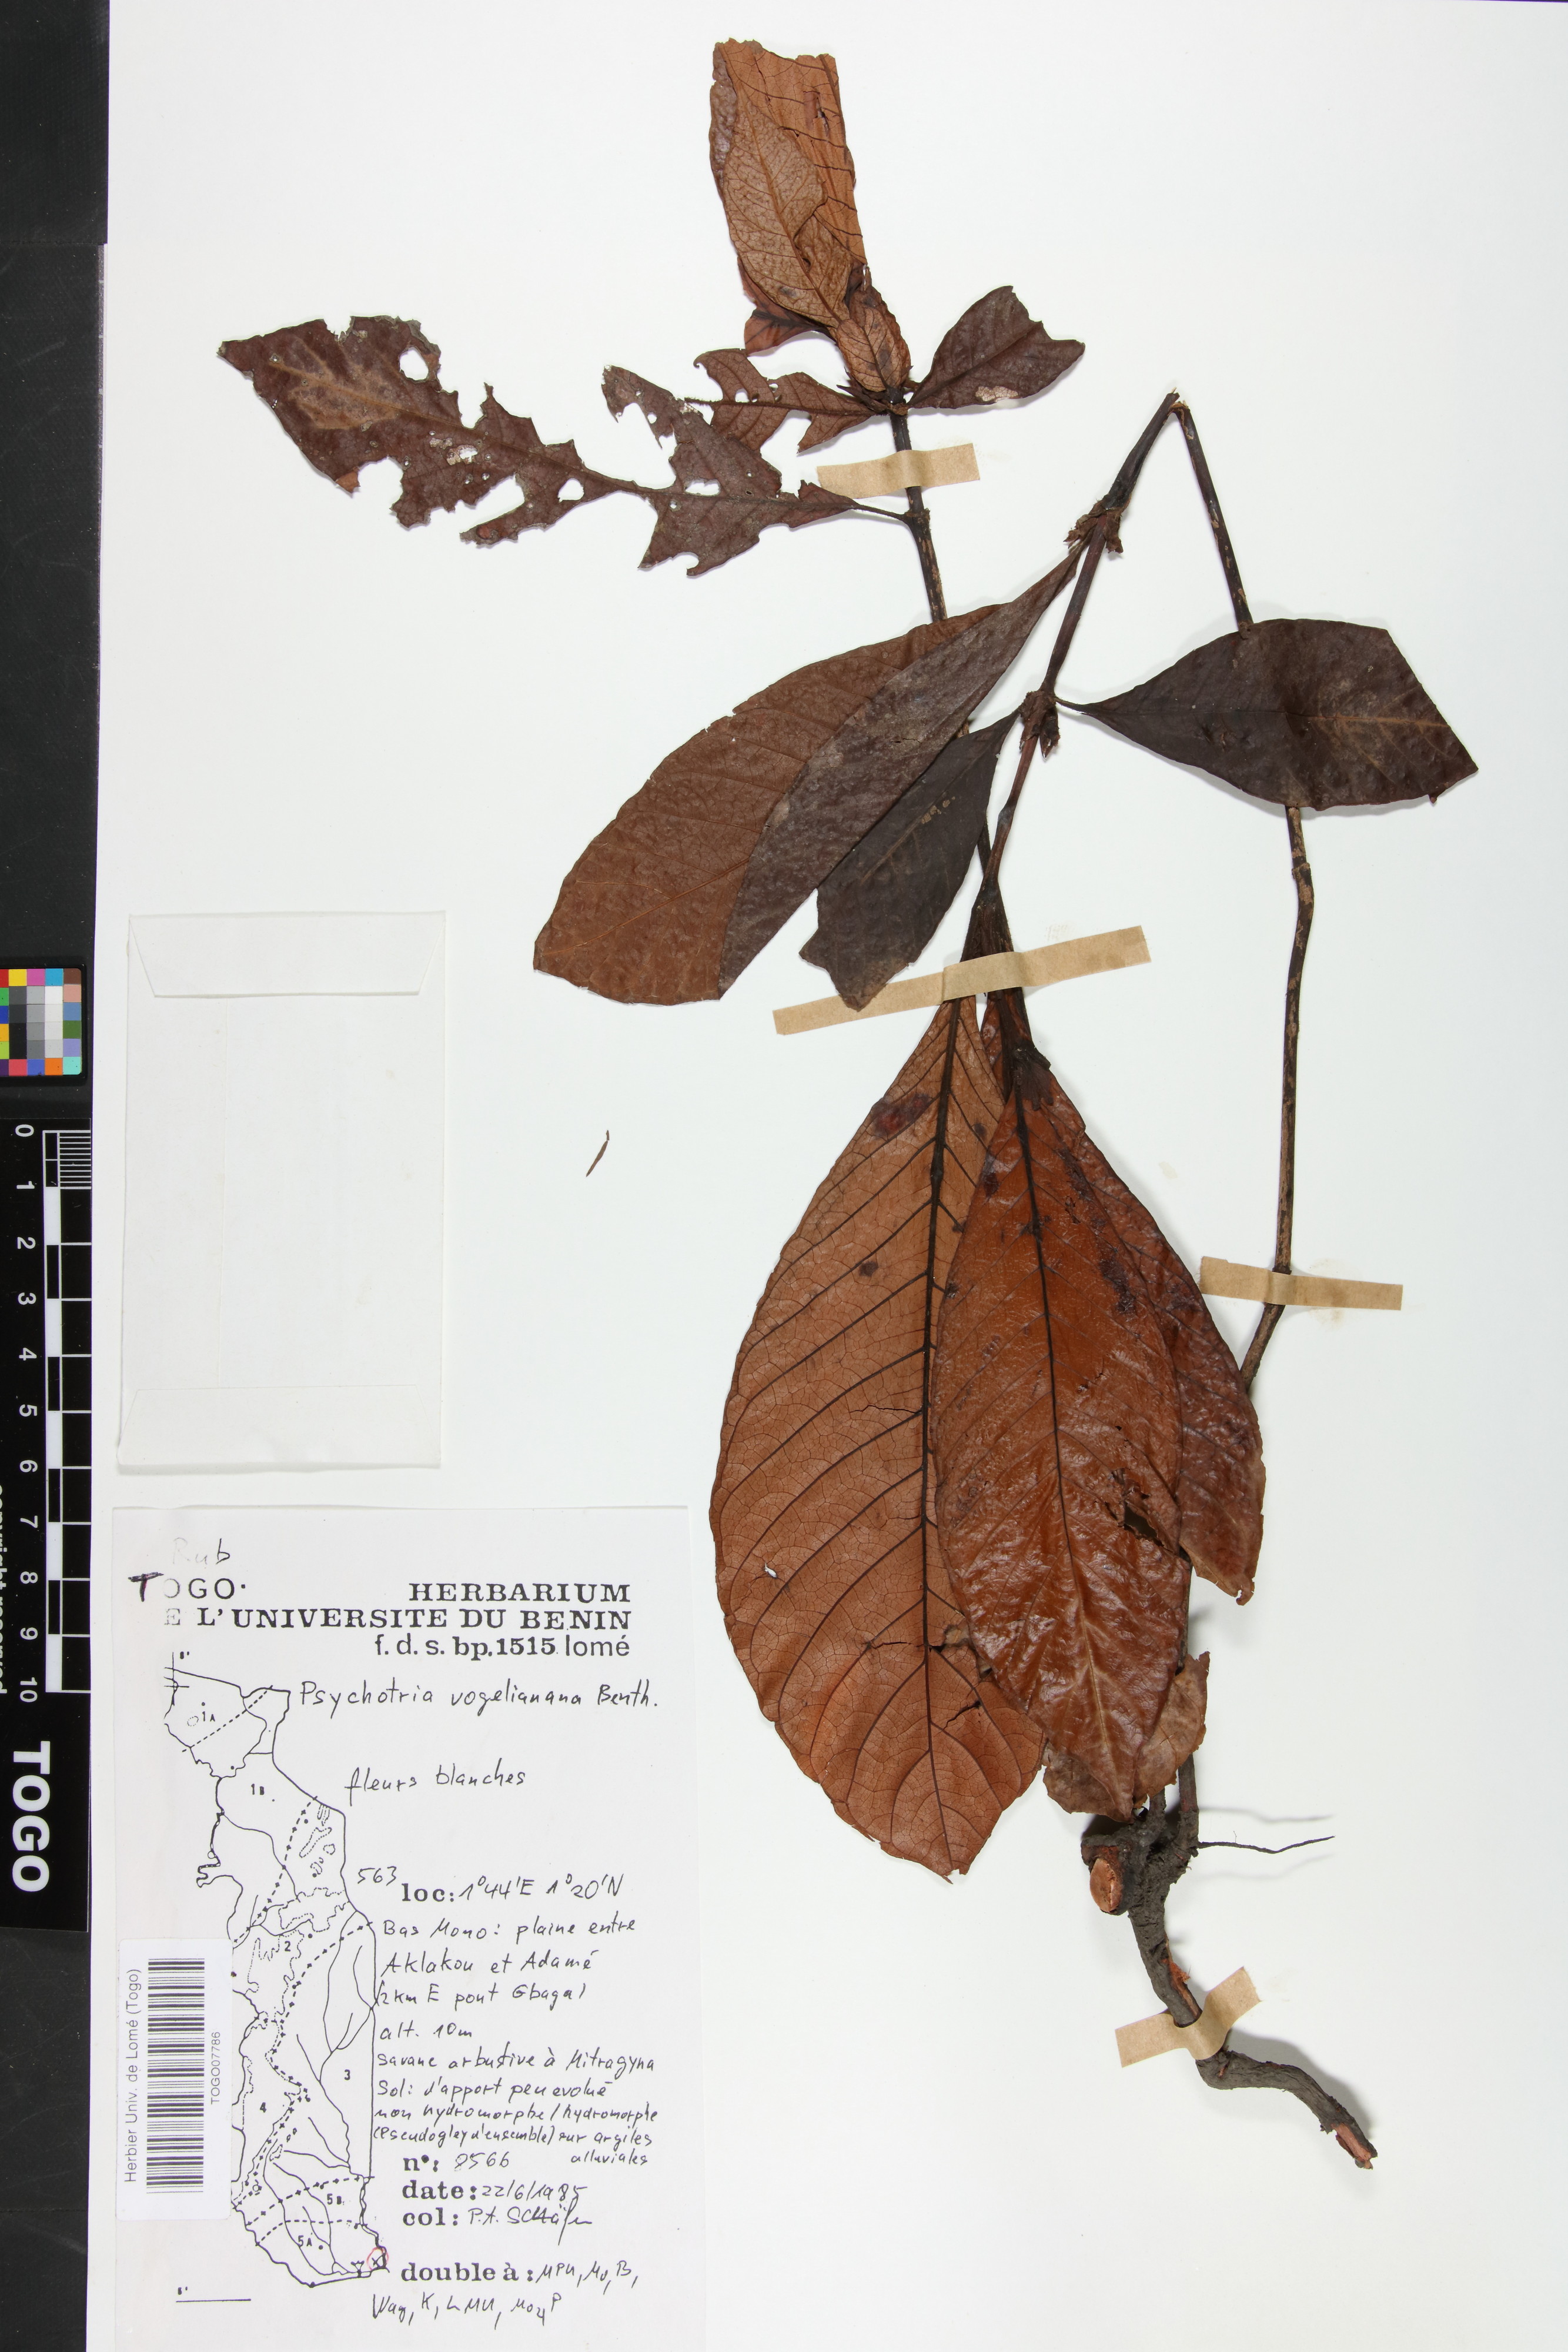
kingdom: Plantae
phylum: Tracheophyta
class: Magnoliopsida
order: Gentianales
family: Rubiaceae
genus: Psychotria
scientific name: Psychotria vogeliana
